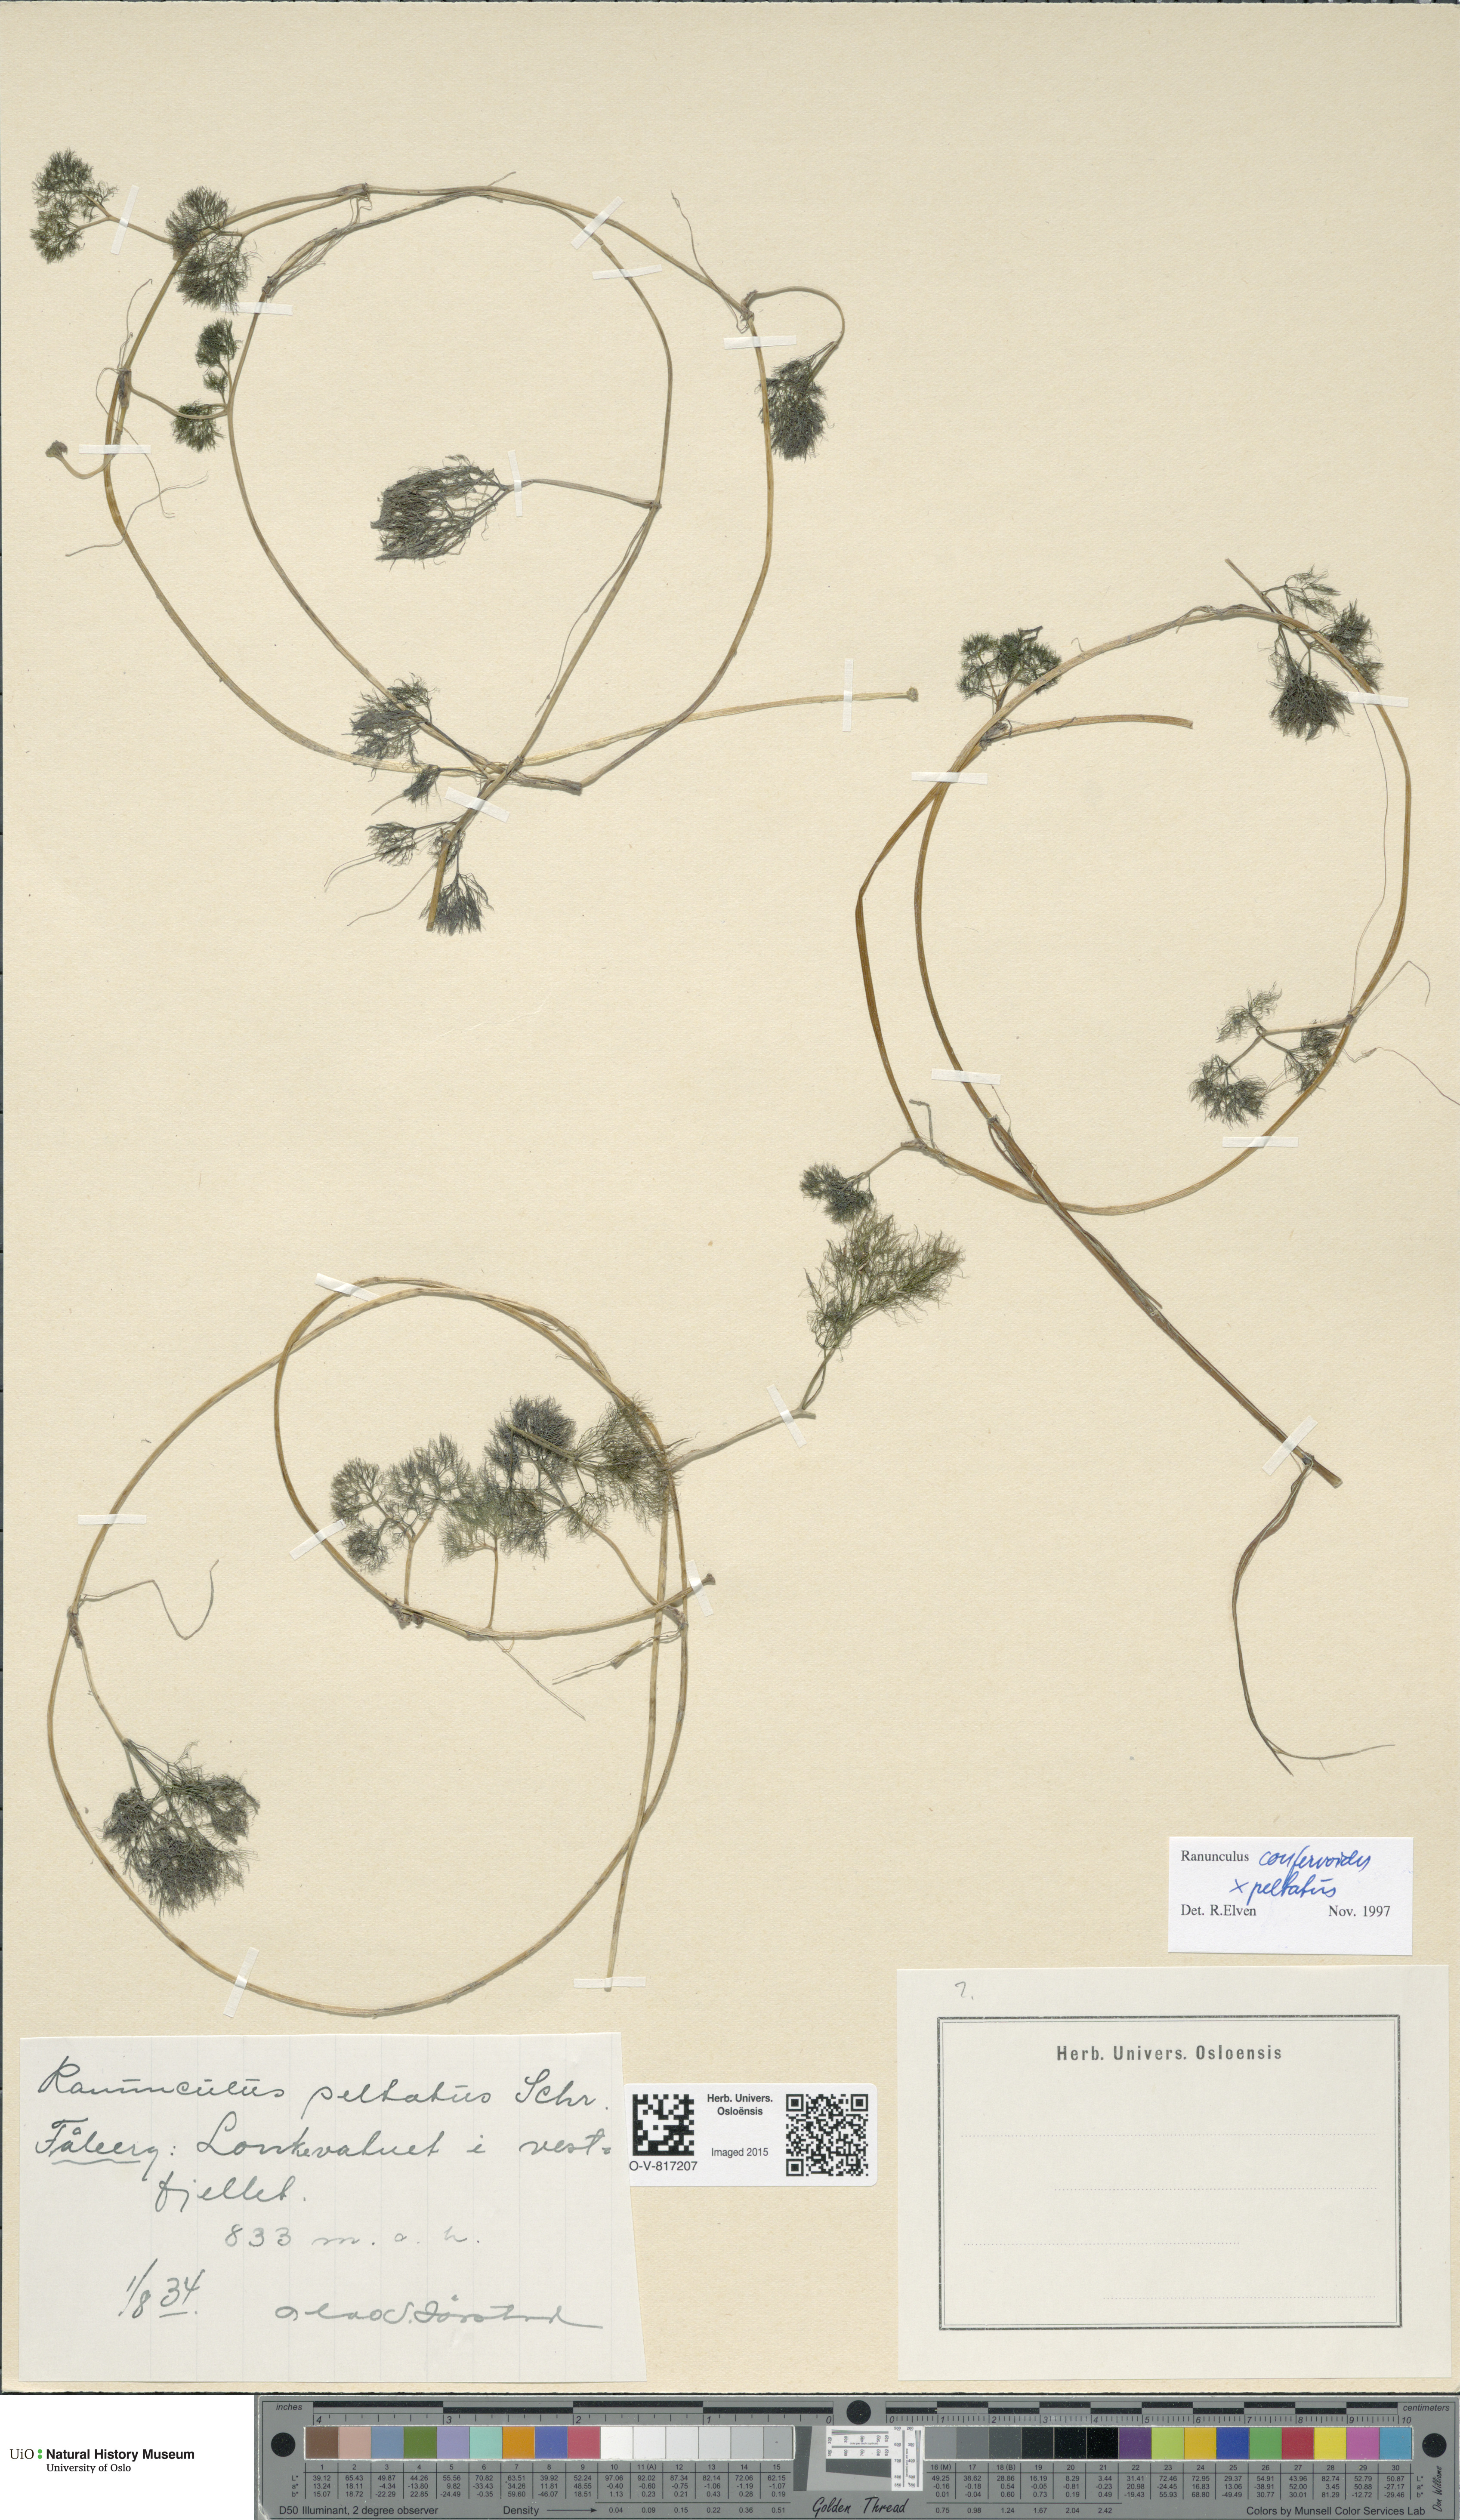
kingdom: Plantae
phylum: Tracheophyta
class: Magnoliopsida
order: Ranunculales
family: Ranunculaceae
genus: Ranunculus
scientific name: Ranunculus
